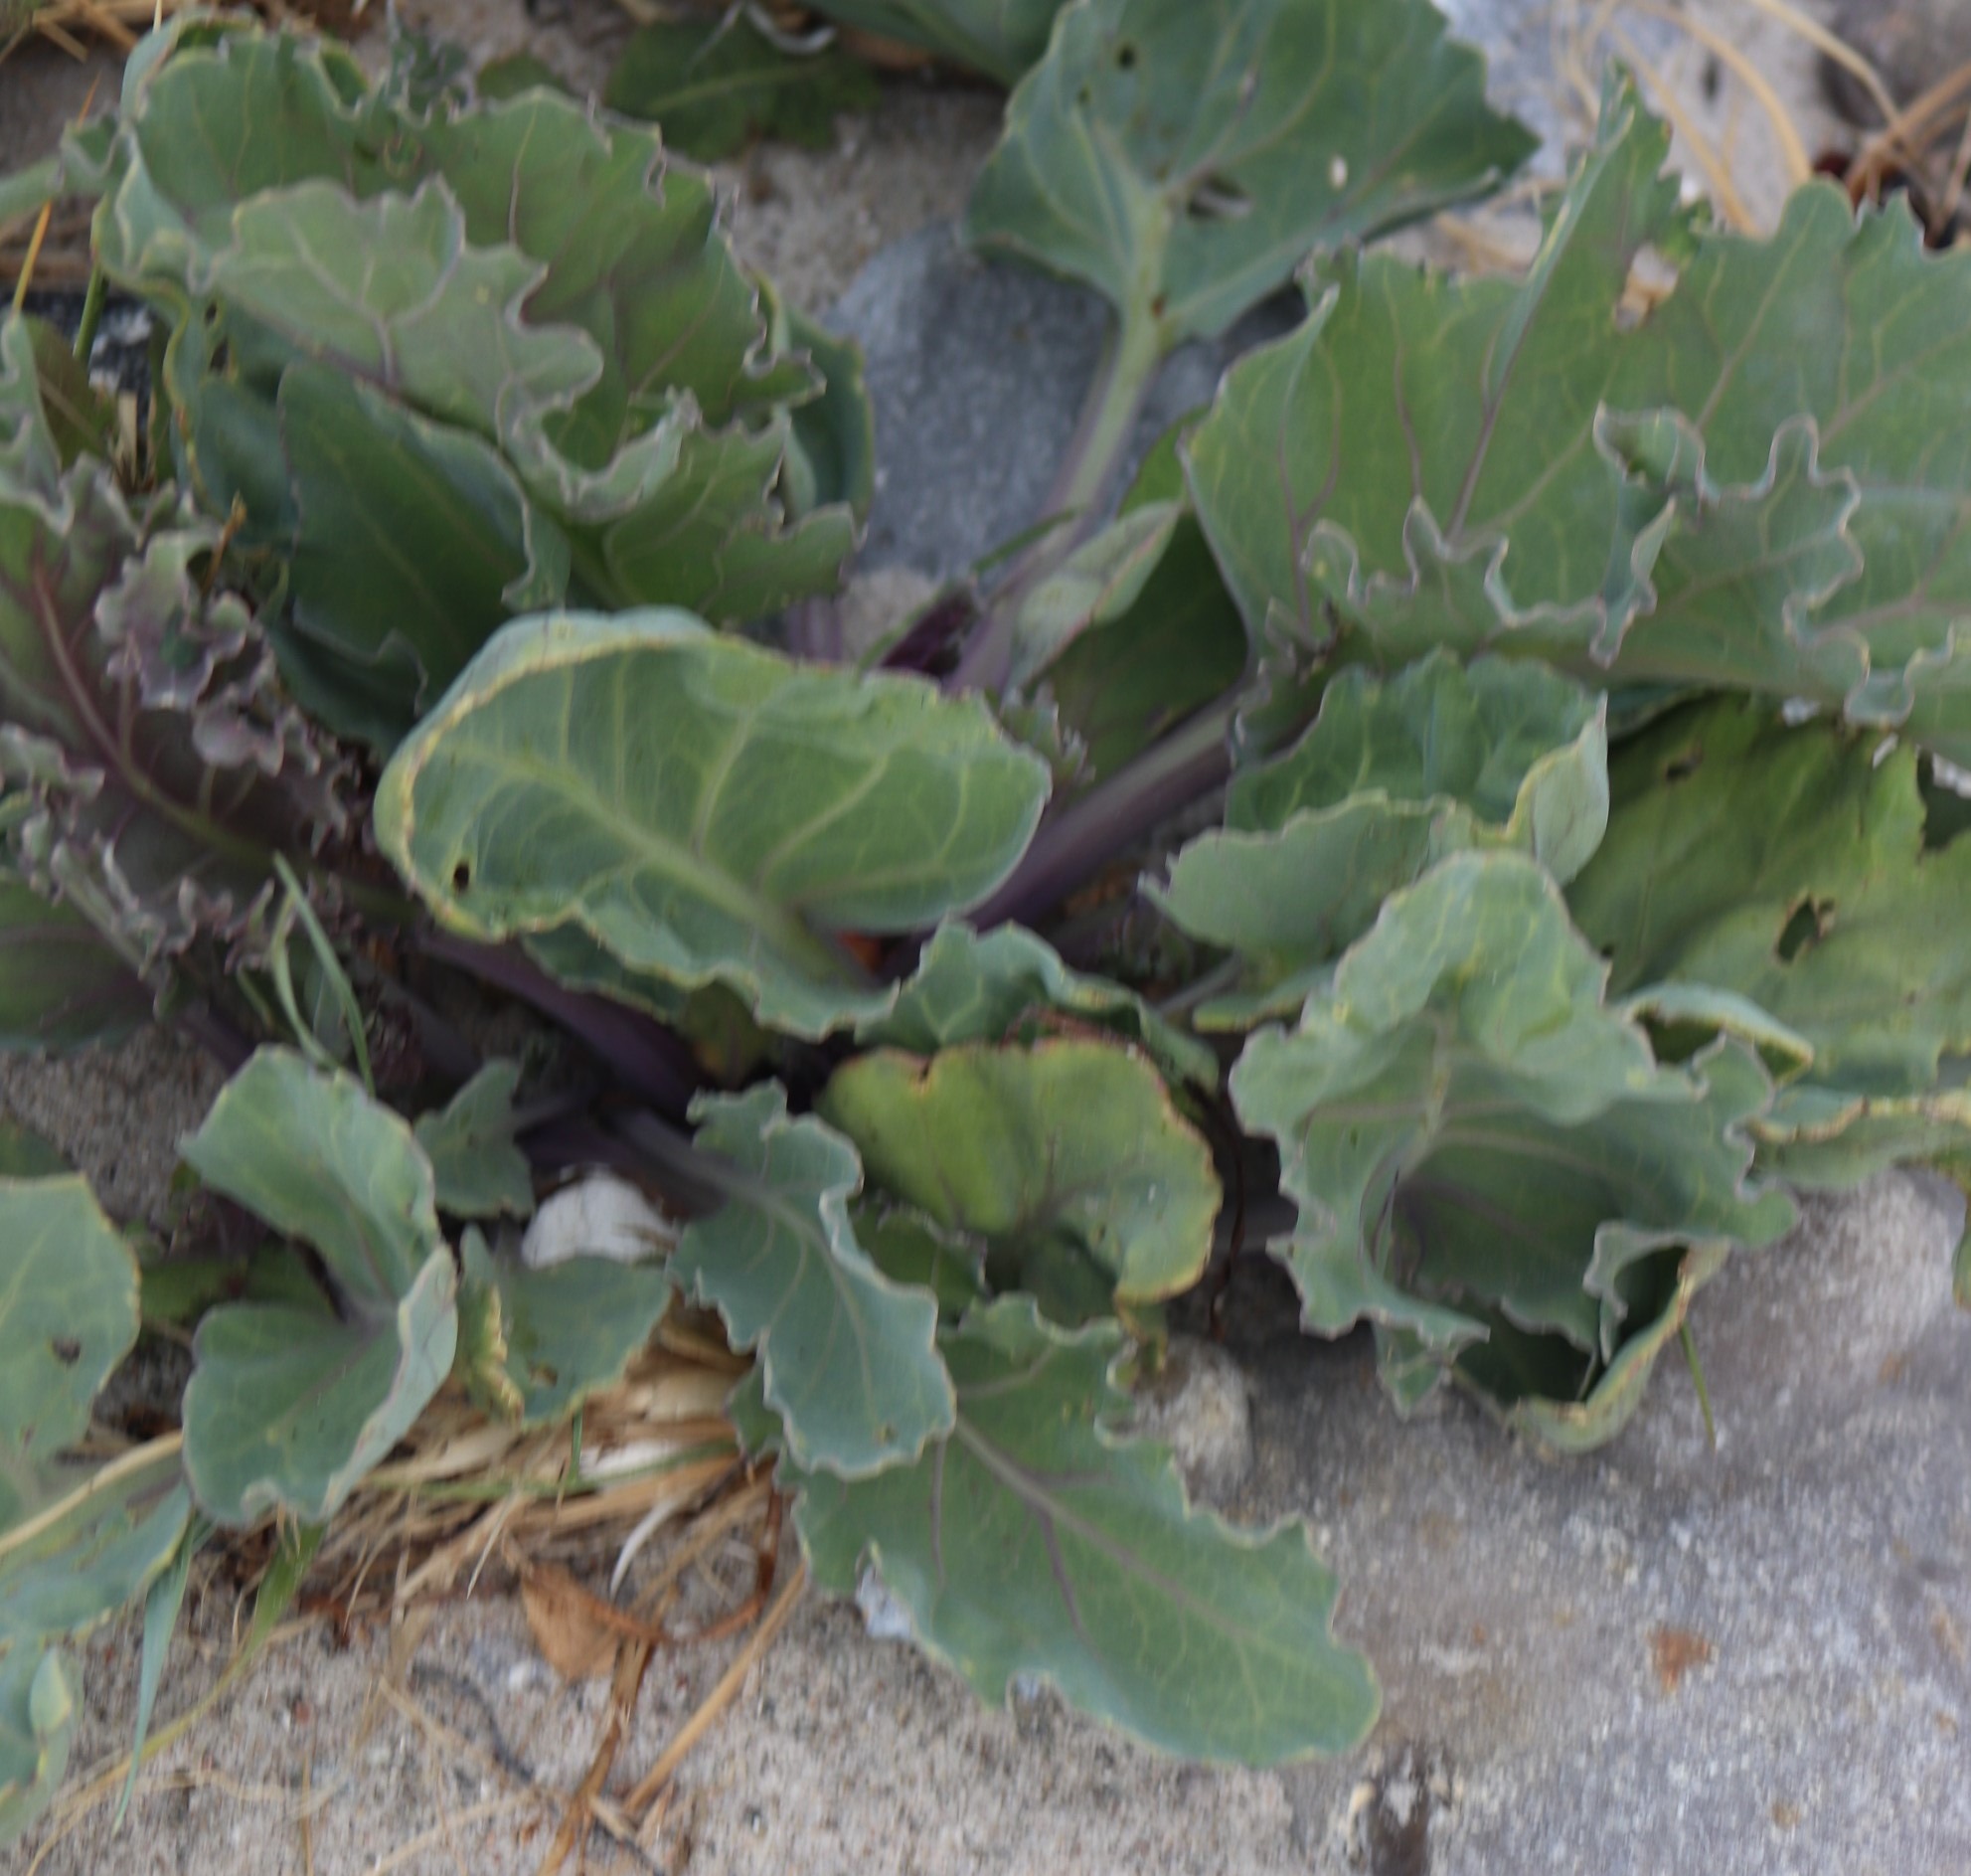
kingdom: Plantae
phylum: Tracheophyta
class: Magnoliopsida
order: Brassicales
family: Brassicaceae
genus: Crambe
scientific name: Crambe maritima
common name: Strandkål
